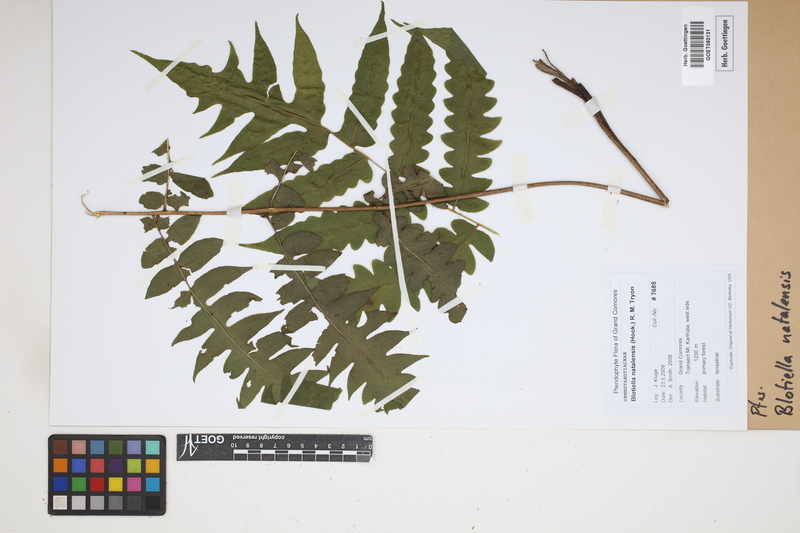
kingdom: Plantae
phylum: Tracheophyta
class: Polypodiopsida
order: Polypodiales
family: Dennstaedtiaceae
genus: Blotiella
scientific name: Blotiella natalensis
